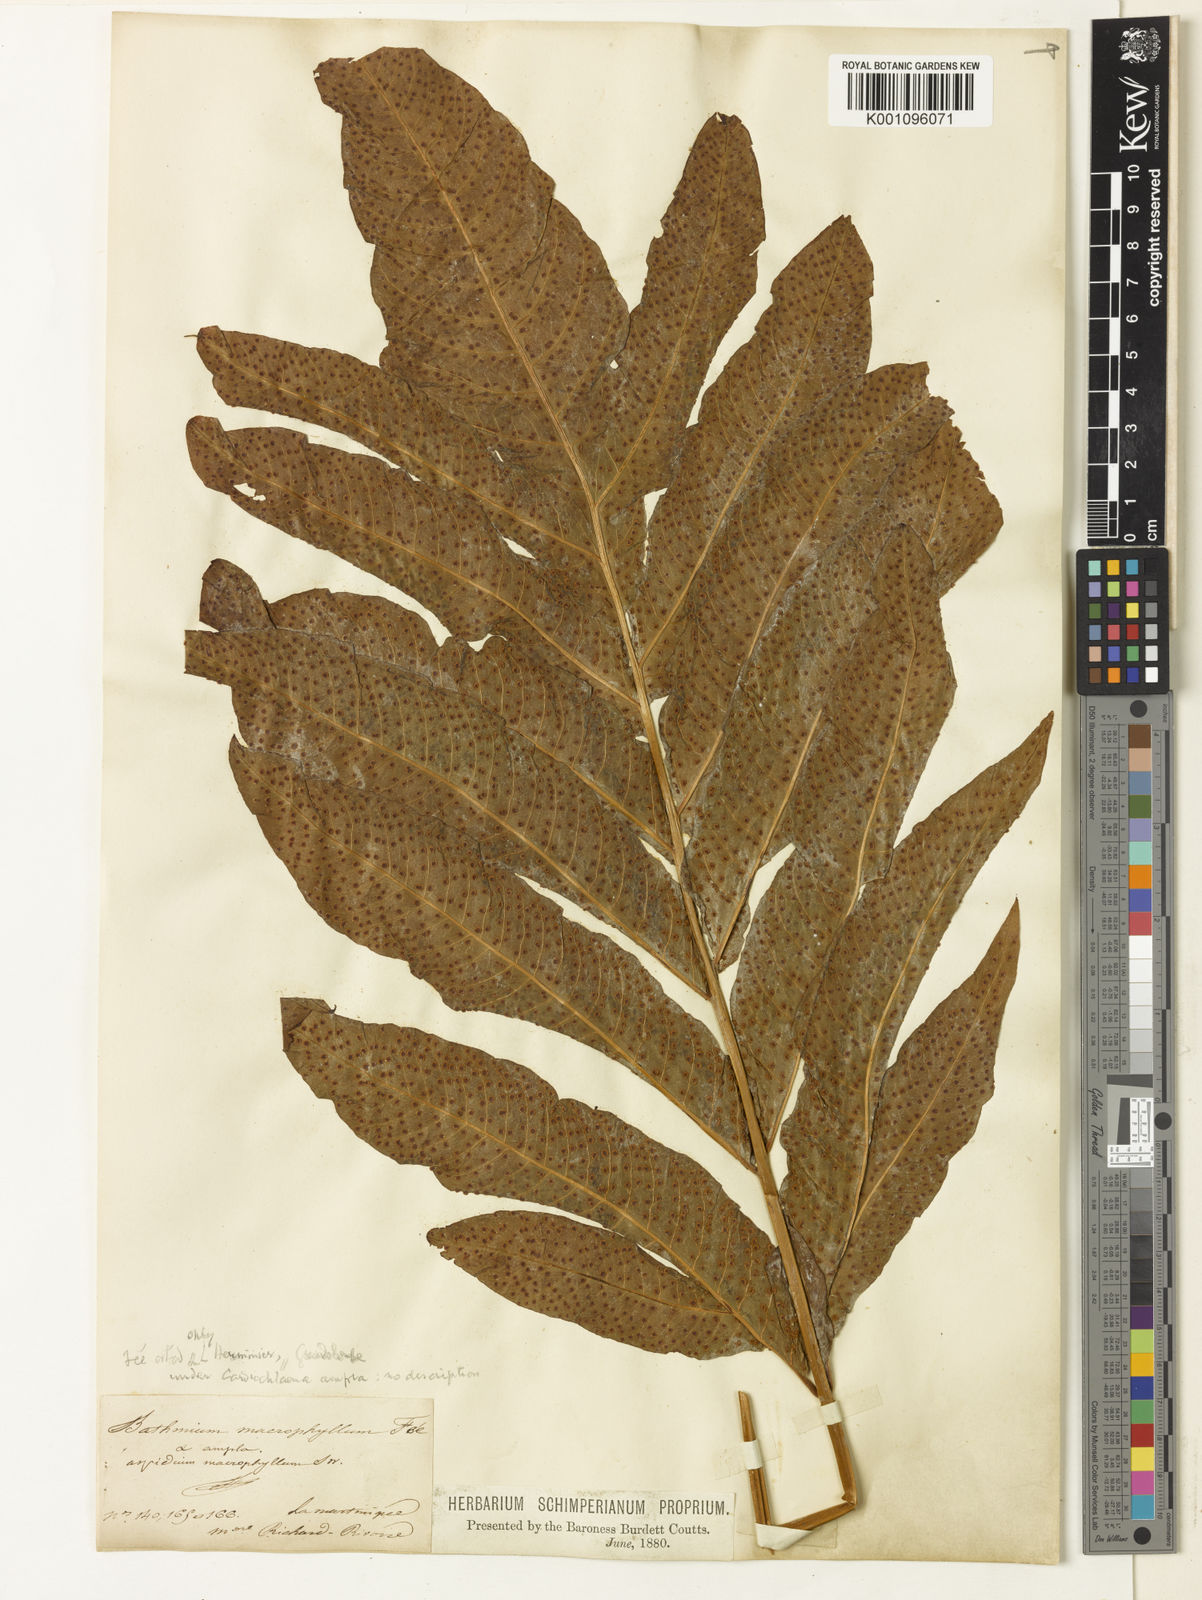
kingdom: Plantae
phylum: Tracheophyta
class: Polypodiopsida
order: Polypodiales
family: Tectariaceae
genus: Tectaria
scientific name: Tectaria incisa
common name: Incised halberd fern
